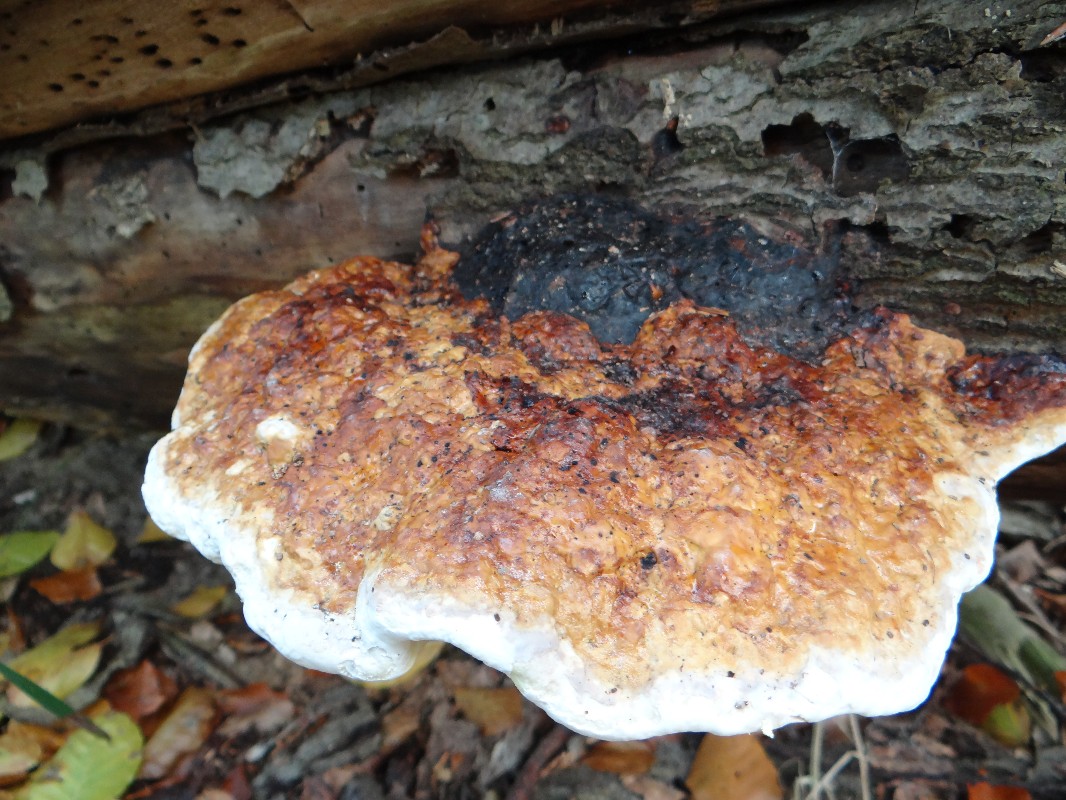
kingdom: Fungi
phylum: Basidiomycota
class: Agaricomycetes
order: Polyporales
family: Fomitopsidaceae
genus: Fomitopsis
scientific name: Fomitopsis pinicola
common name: randbæltet hovporesvamp
